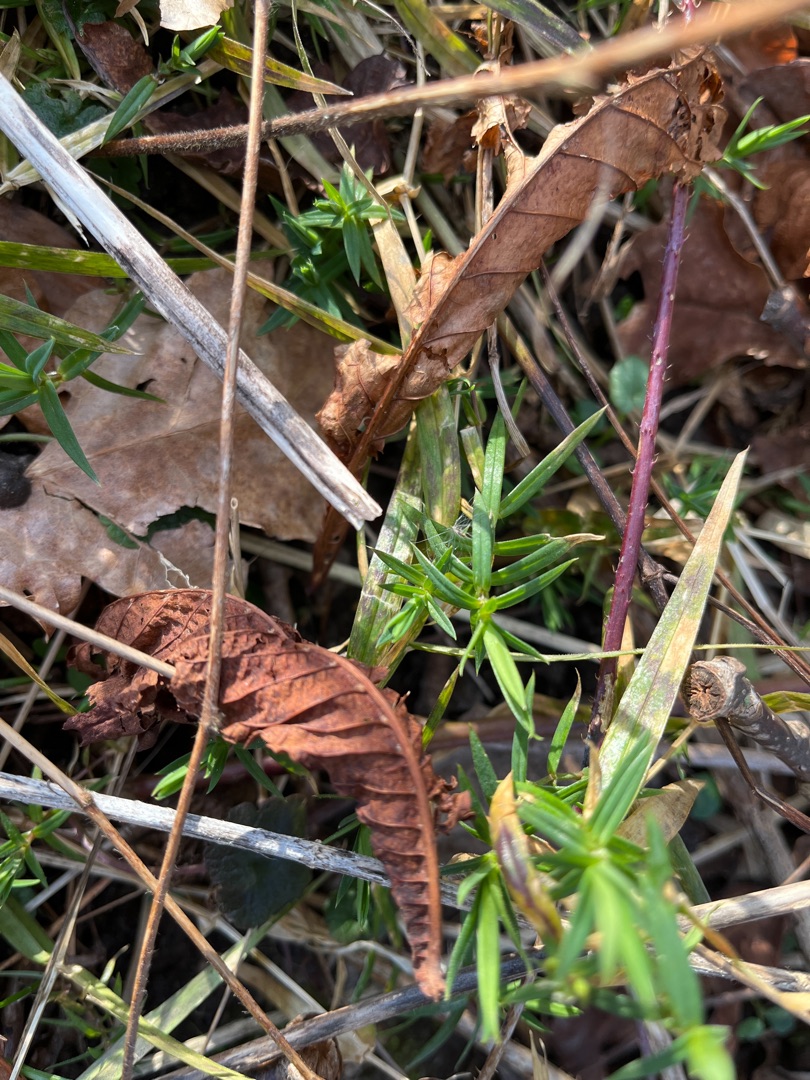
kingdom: Plantae
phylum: Tracheophyta
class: Magnoliopsida
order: Caryophyllales
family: Caryophyllaceae
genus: Rabelera
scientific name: Rabelera holostea
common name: Stor fladstjerne
